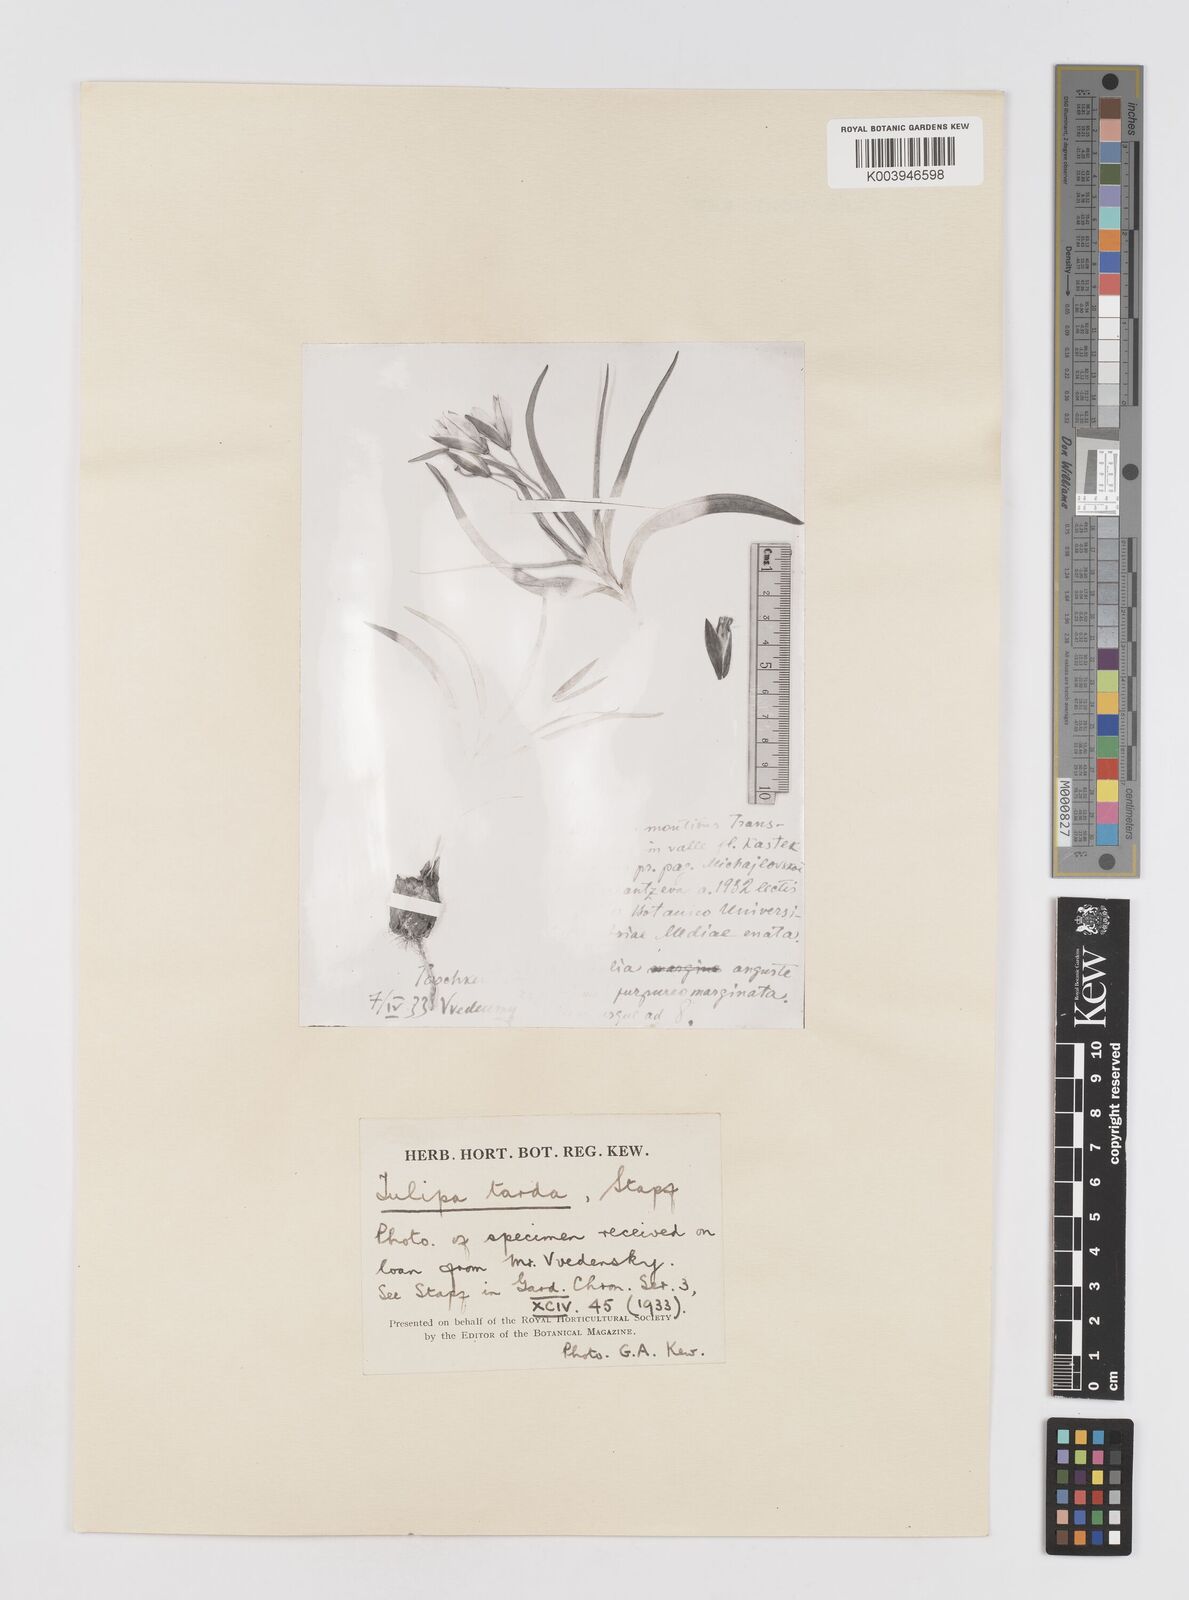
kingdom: Plantae
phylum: Tracheophyta
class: Liliopsida
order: Liliales
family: Liliaceae
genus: Tulipa
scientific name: Tulipa urumiensis
